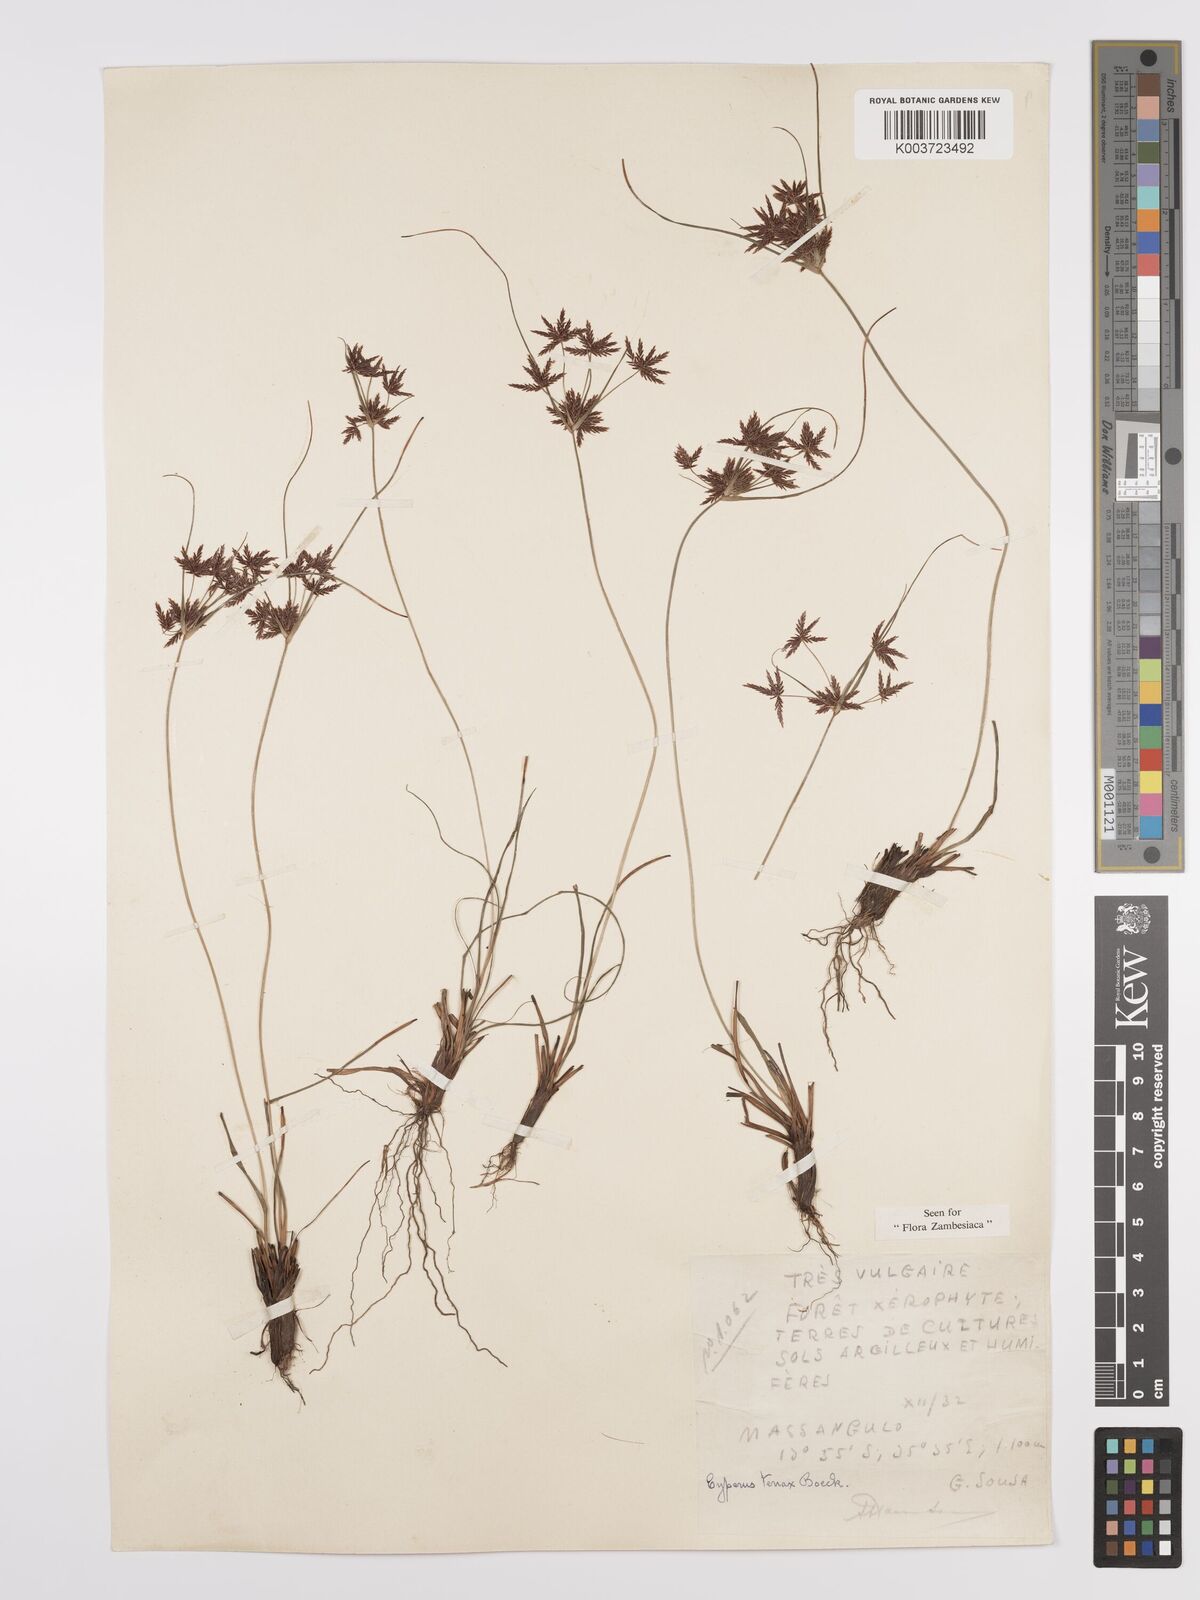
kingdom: Plantae
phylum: Tracheophyta
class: Liliopsida
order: Poales
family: Cyperaceae
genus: Cyperus
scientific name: Cyperus tenax
